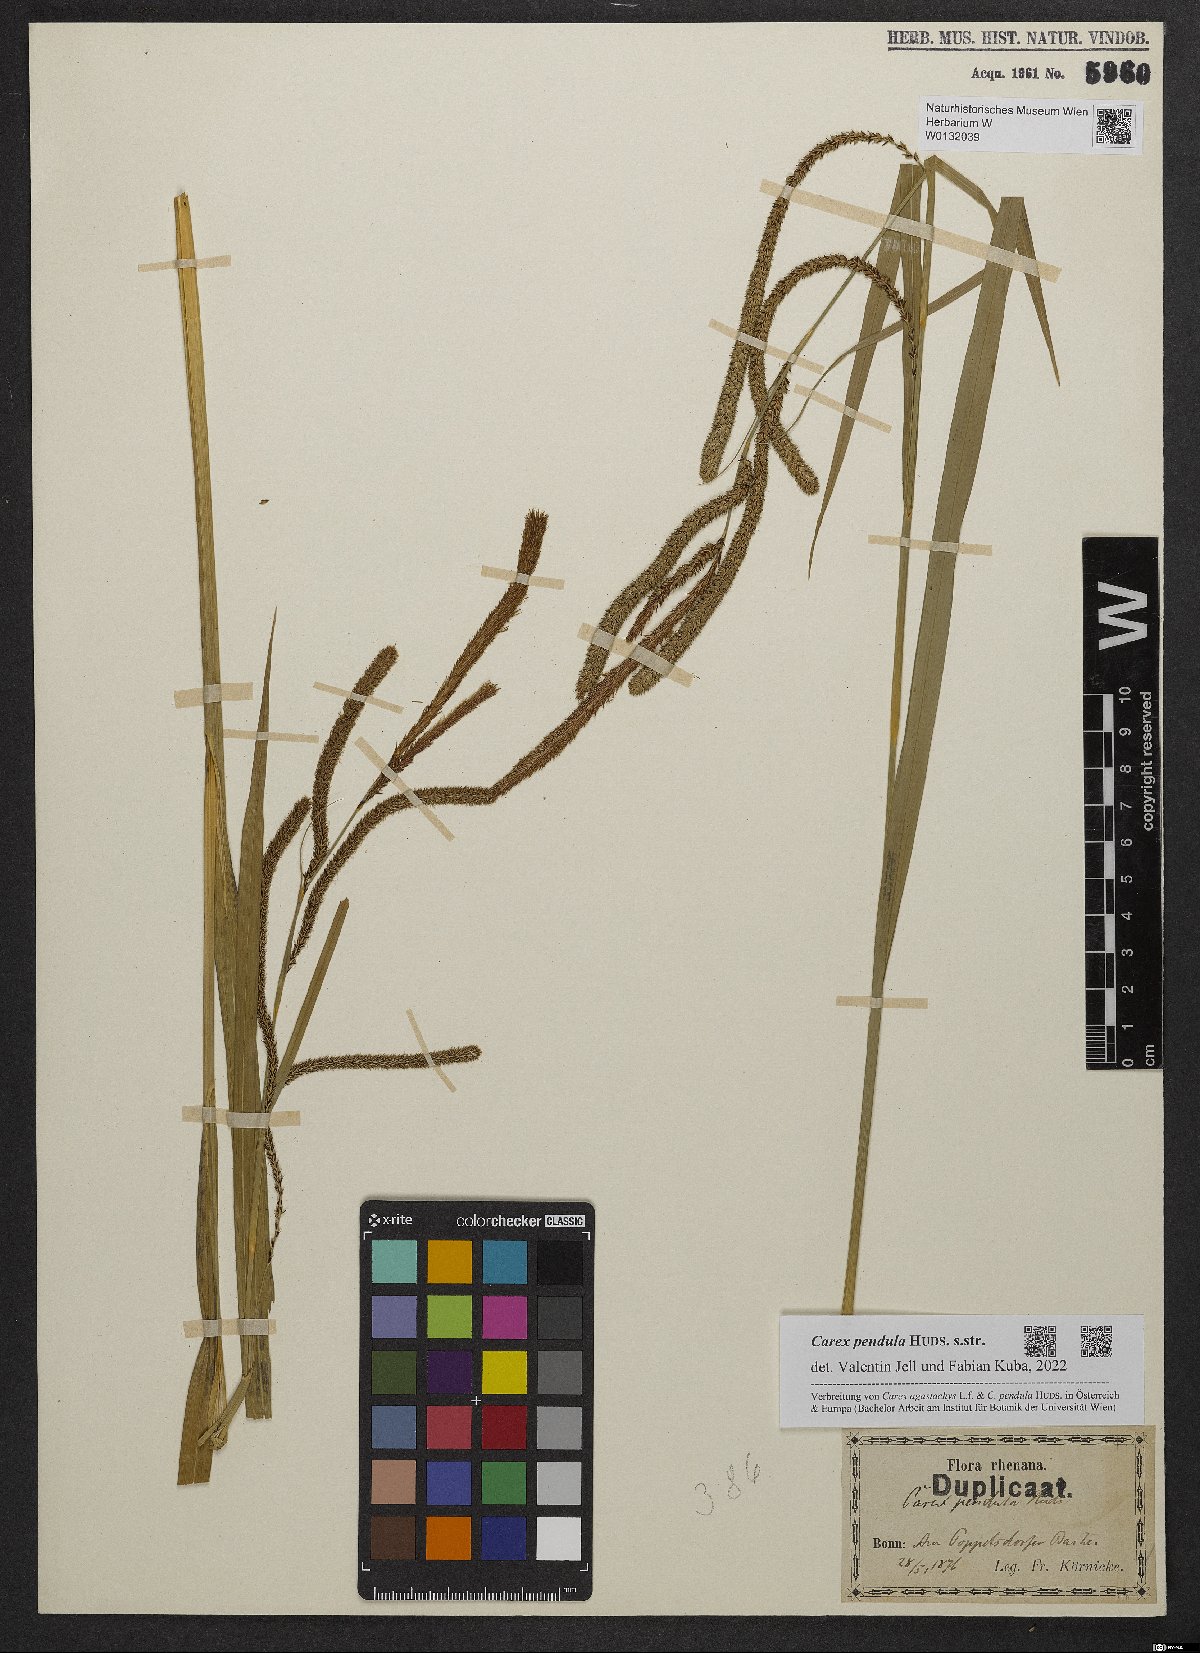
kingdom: Plantae
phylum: Tracheophyta
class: Liliopsida
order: Poales
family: Cyperaceae
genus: Carex
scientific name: Carex pendula
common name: Pendulous sedge
